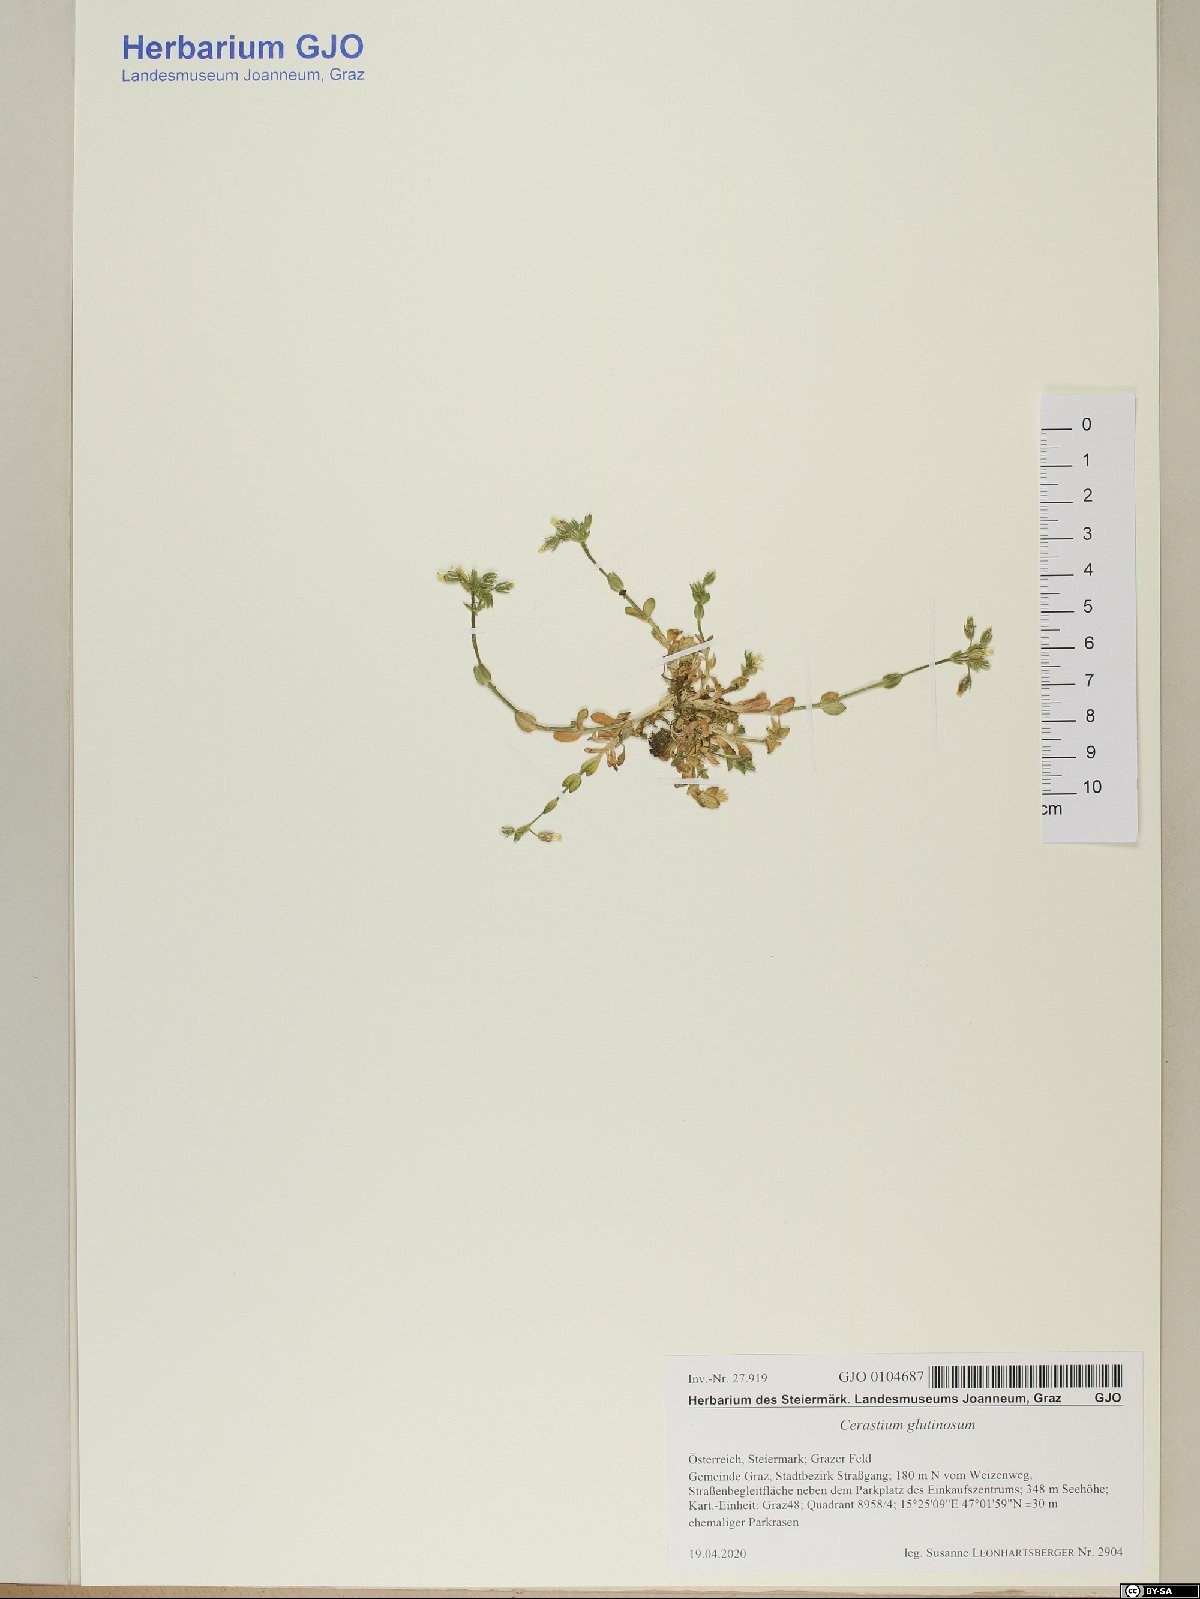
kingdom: Plantae
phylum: Tracheophyta
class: Magnoliopsida
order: Caryophyllales
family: Caryophyllaceae
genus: Cerastium
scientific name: Cerastium glutinosum
